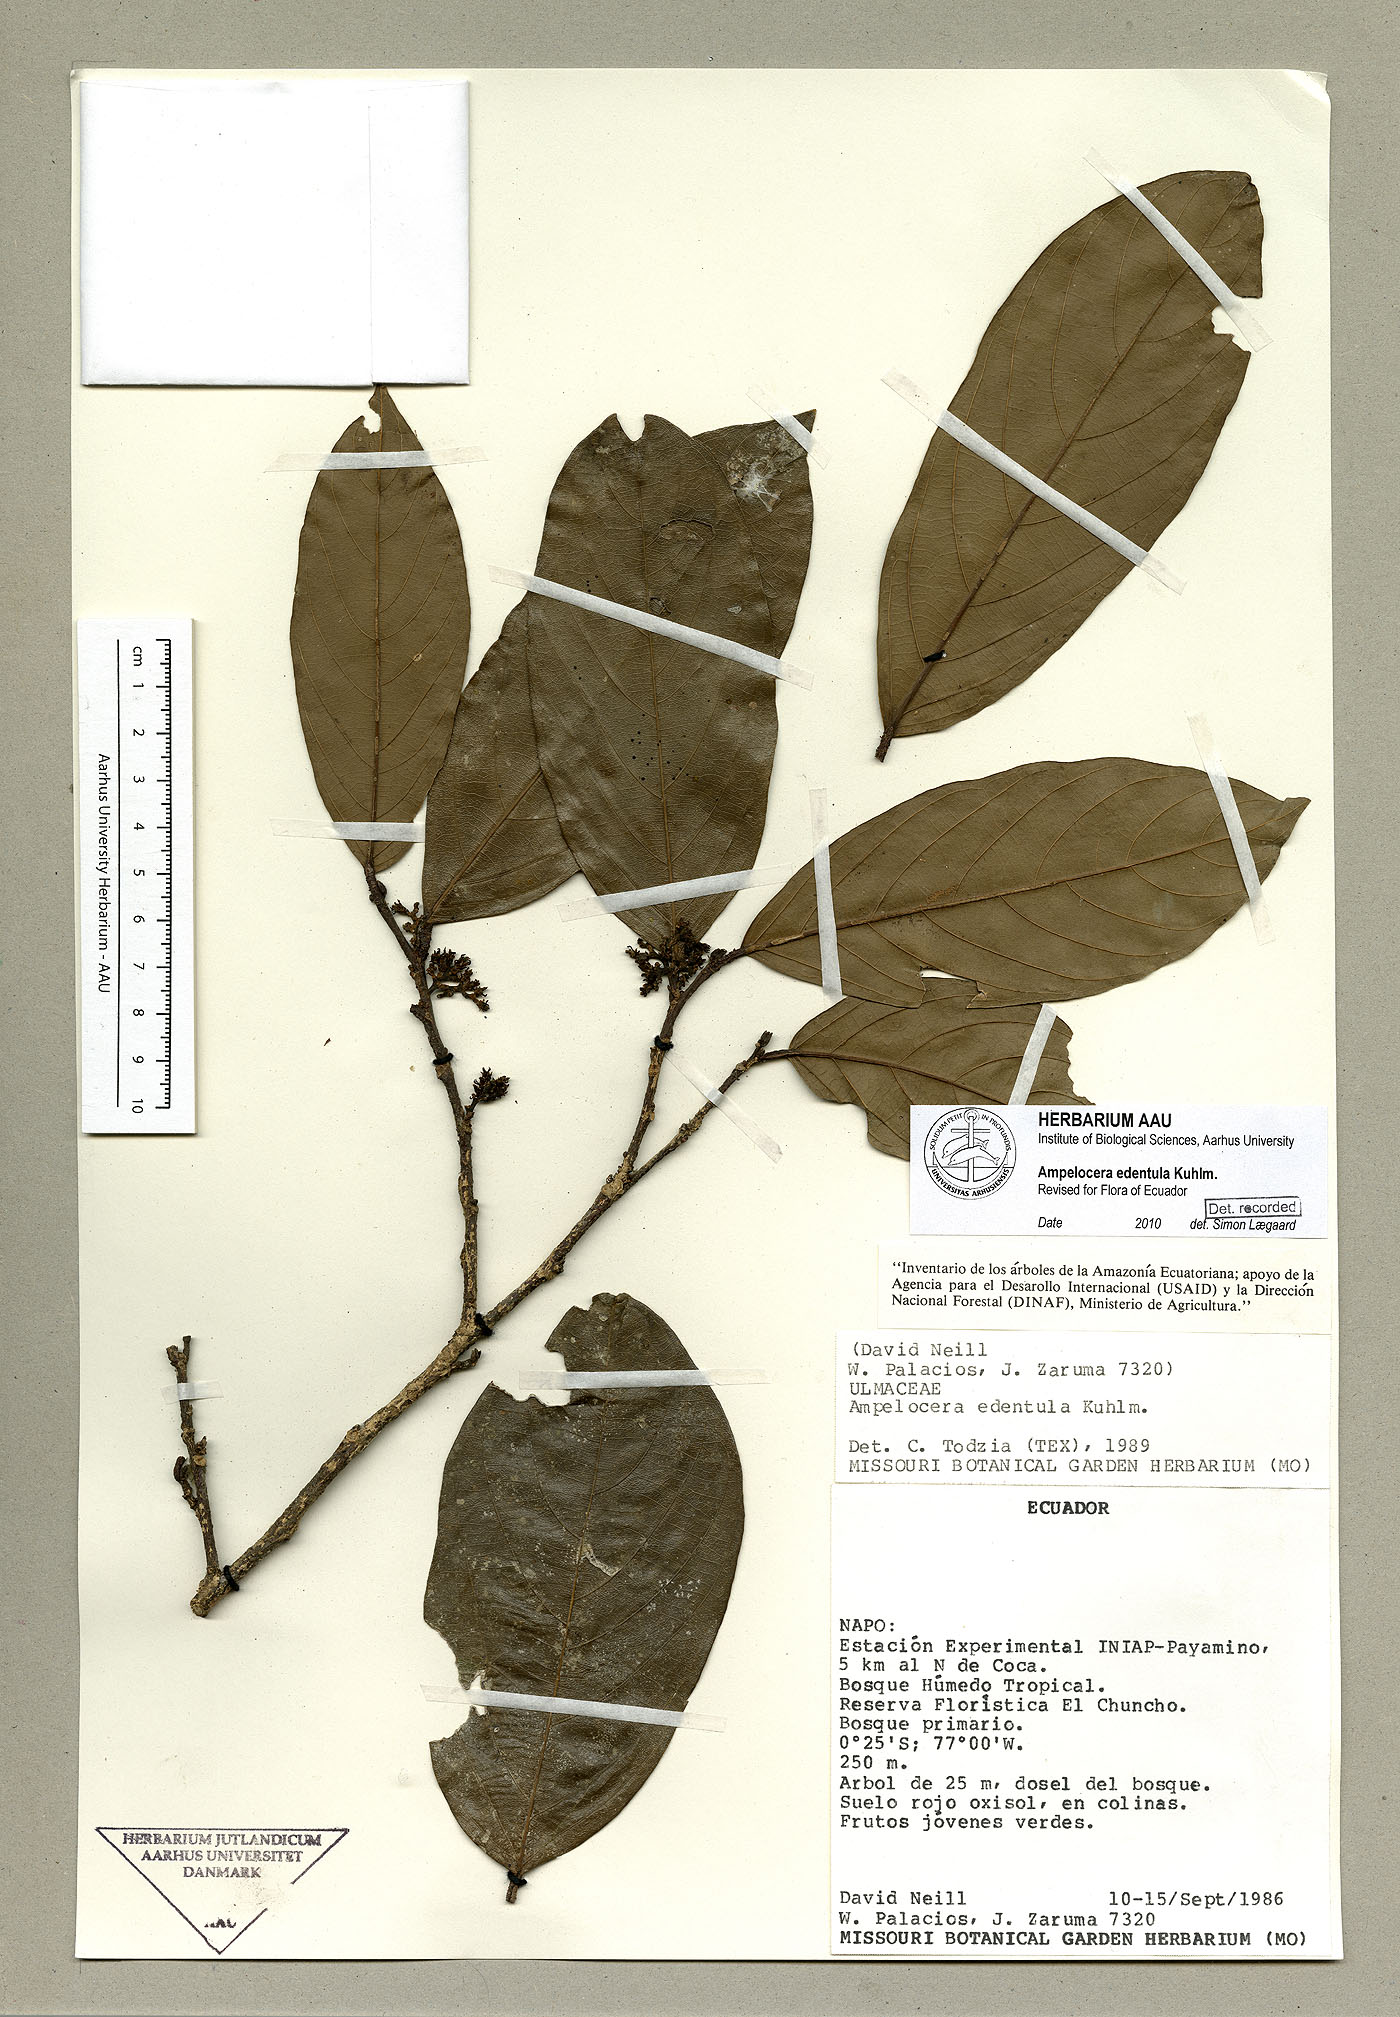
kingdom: Plantae
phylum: Tracheophyta
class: Magnoliopsida
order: Rosales
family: Cannabaceae
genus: Ampelocera
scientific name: Ampelocera edentula
